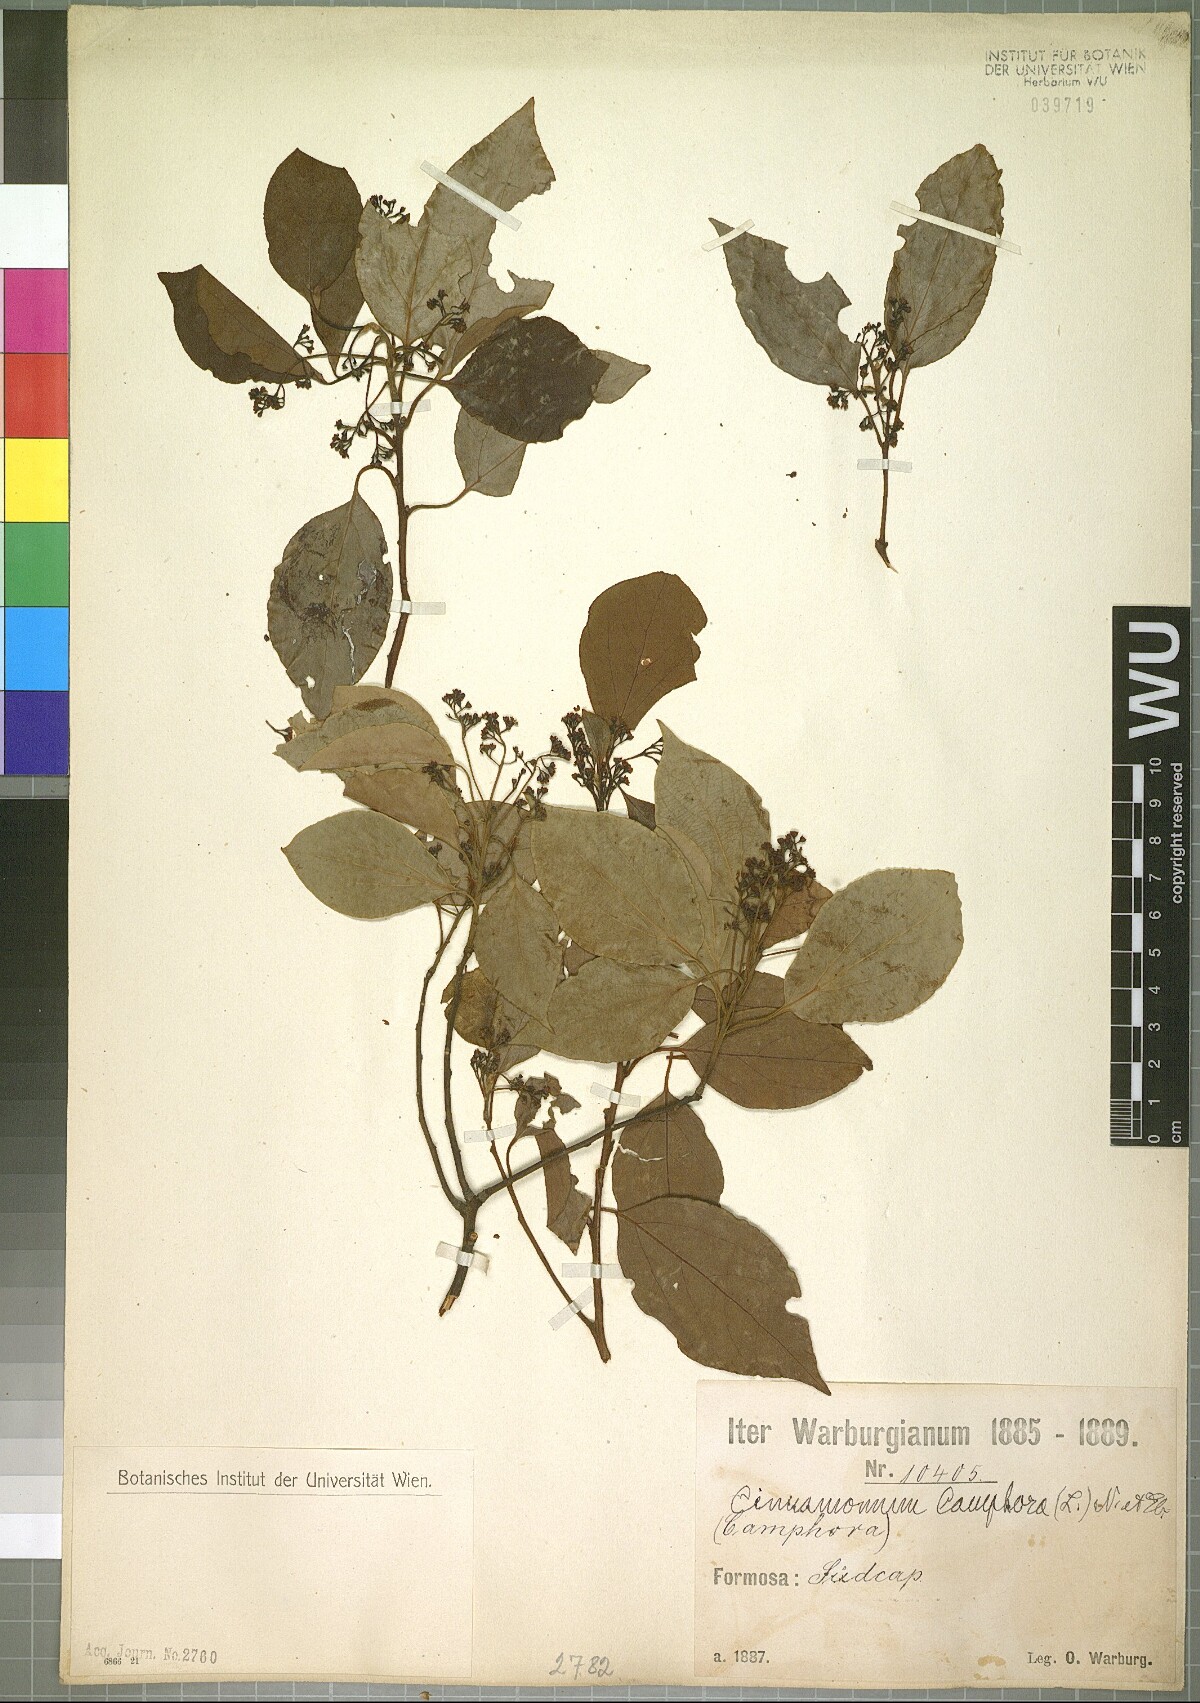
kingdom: Plantae
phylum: Tracheophyta
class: Magnoliopsida
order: Laurales
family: Lauraceae
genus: Cinnamomum
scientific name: Cinnamomum camphora
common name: Camphortree
